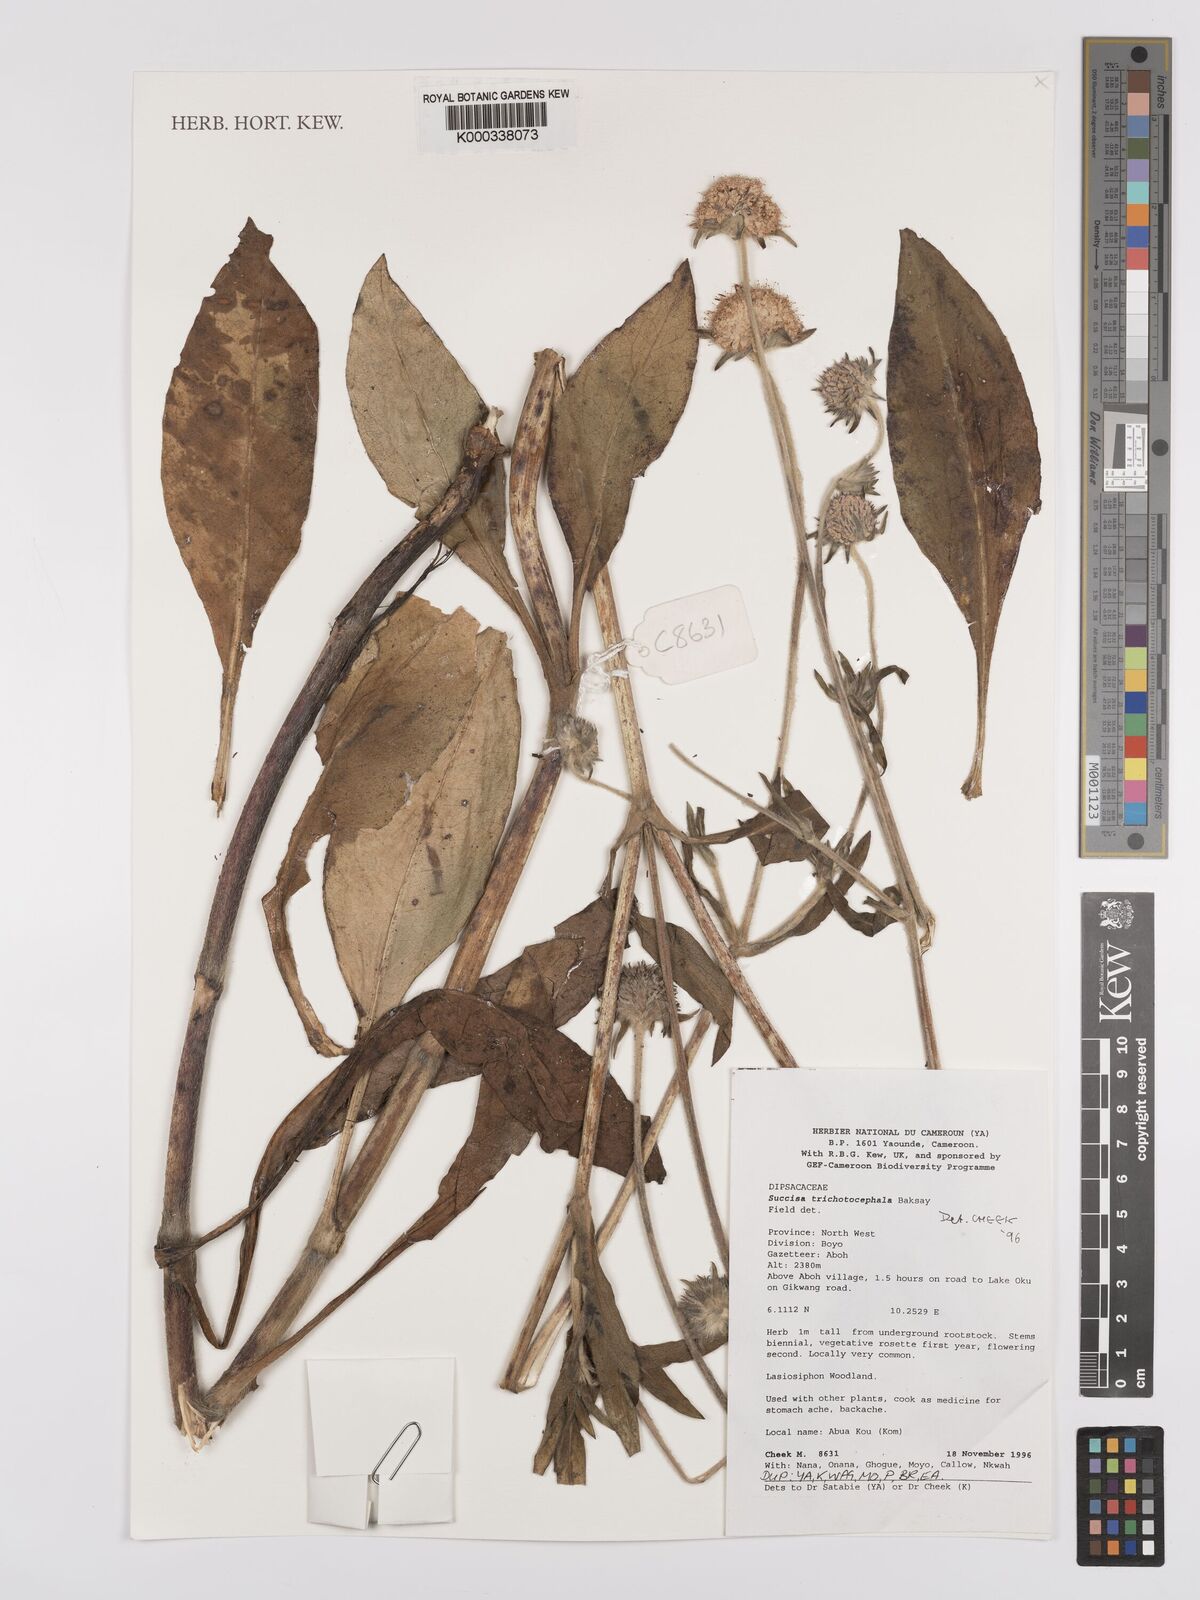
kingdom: Plantae
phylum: Tracheophyta
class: Magnoliopsida
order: Dipsacales
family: Caprifoliaceae
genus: Succisa
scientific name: Succisa trichotocephala
